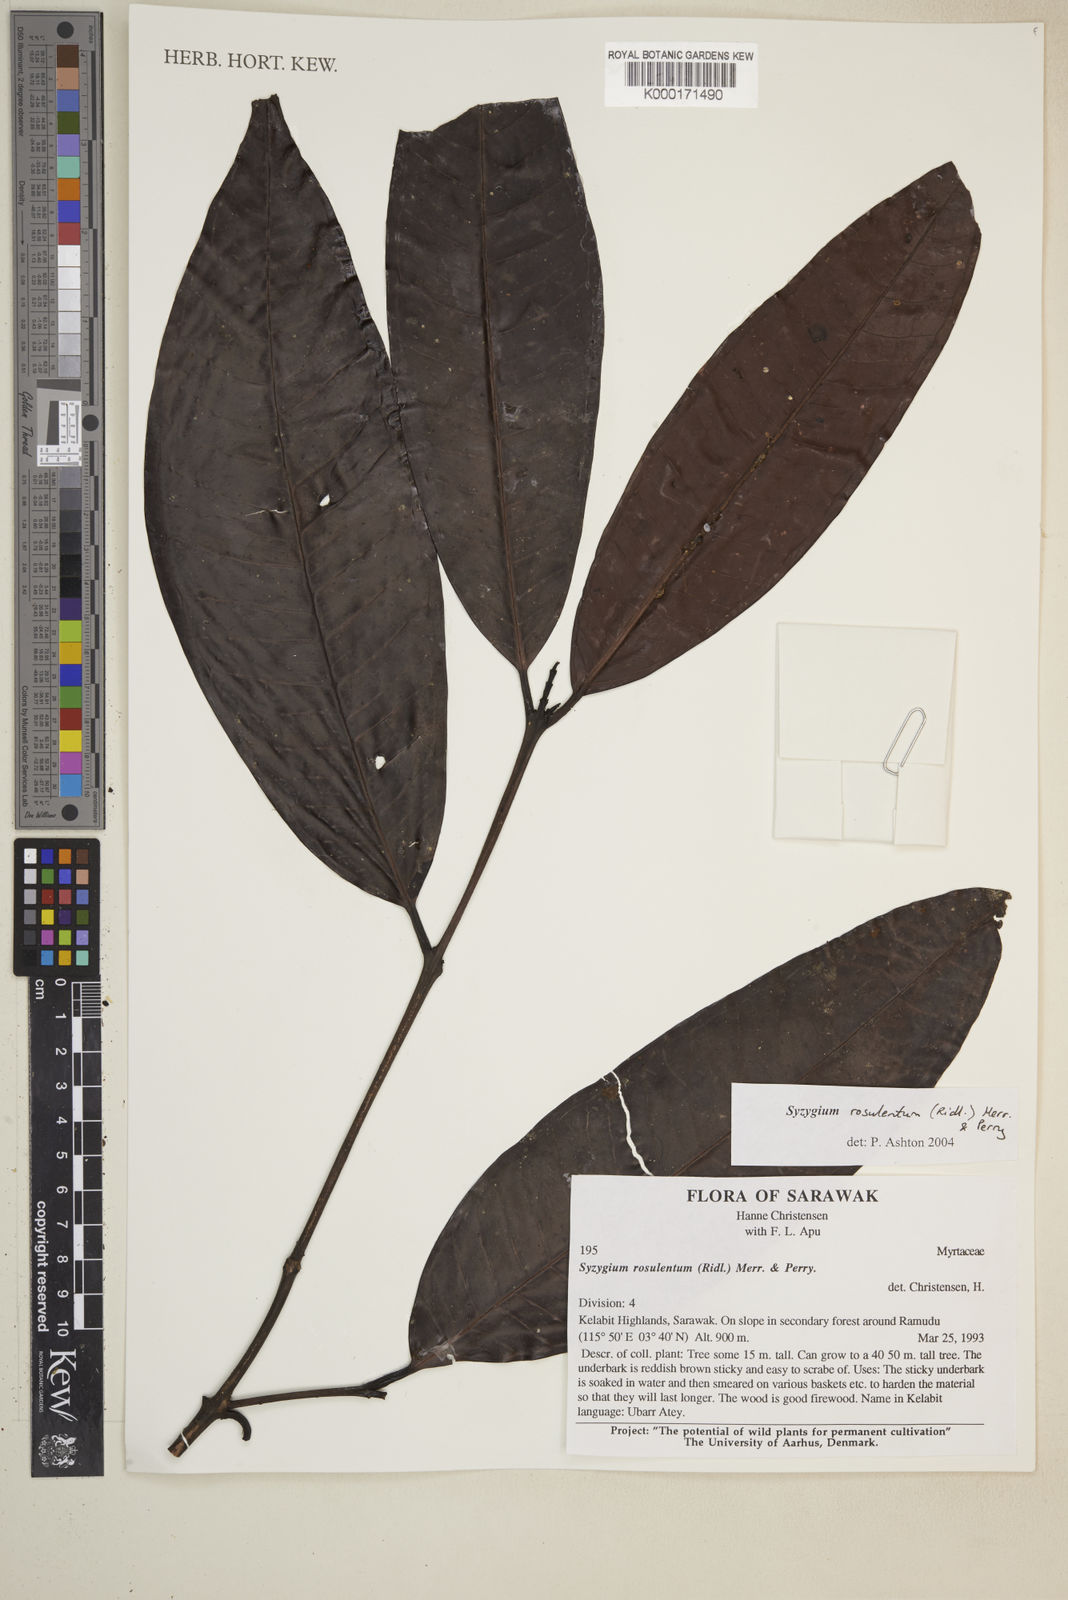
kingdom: Plantae
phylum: Tracheophyta
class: Magnoliopsida
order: Myrtales
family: Myrtaceae
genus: Syzygium
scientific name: Syzygium rosulentum
